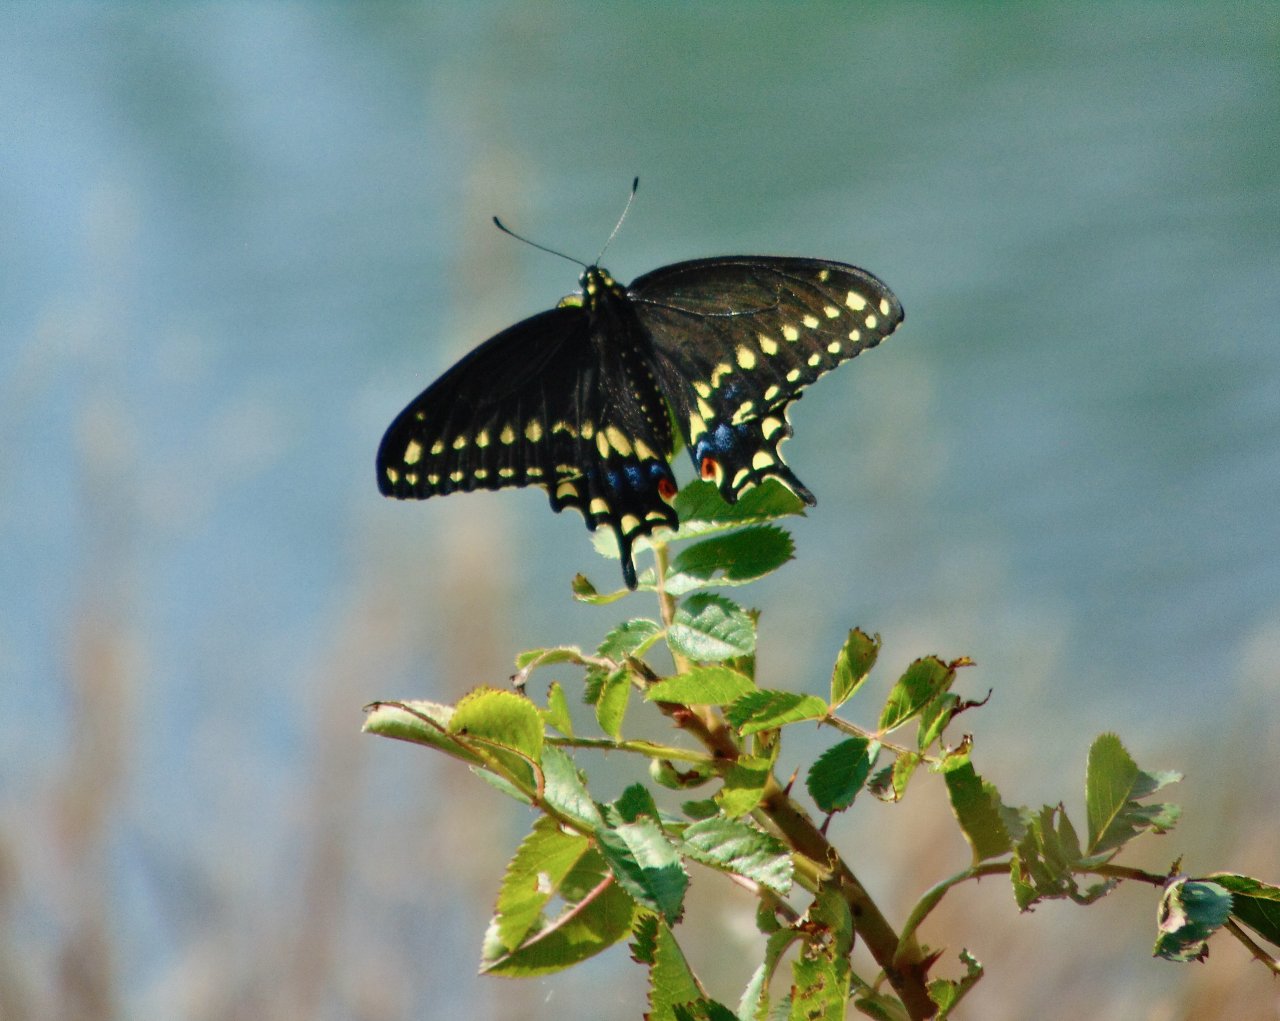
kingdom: Animalia
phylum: Arthropoda
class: Insecta
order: Lepidoptera
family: Papilionidae
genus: Papilio
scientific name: Papilio polyxenes
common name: Black Swallowtail
